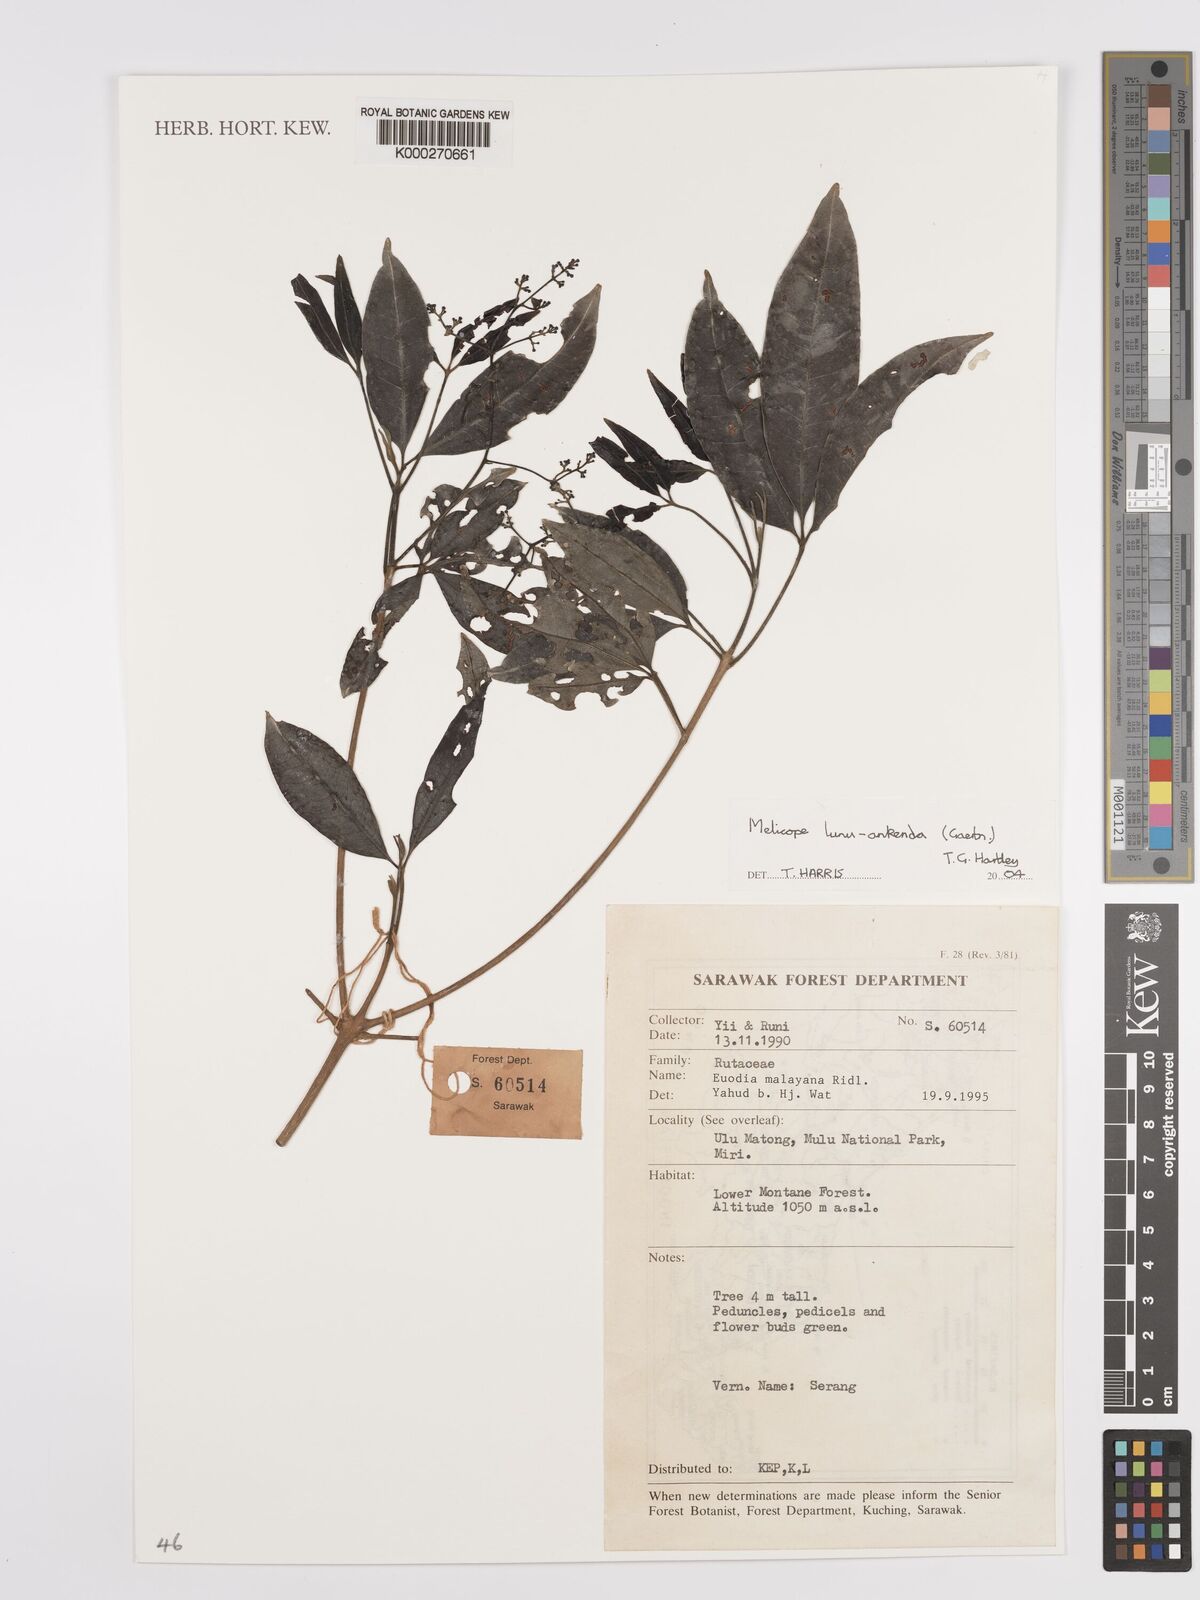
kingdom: Plantae
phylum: Tracheophyta
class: Magnoliopsida
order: Sapindales
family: Rutaceae
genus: Melicope
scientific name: Melicope lunu-ankenda
